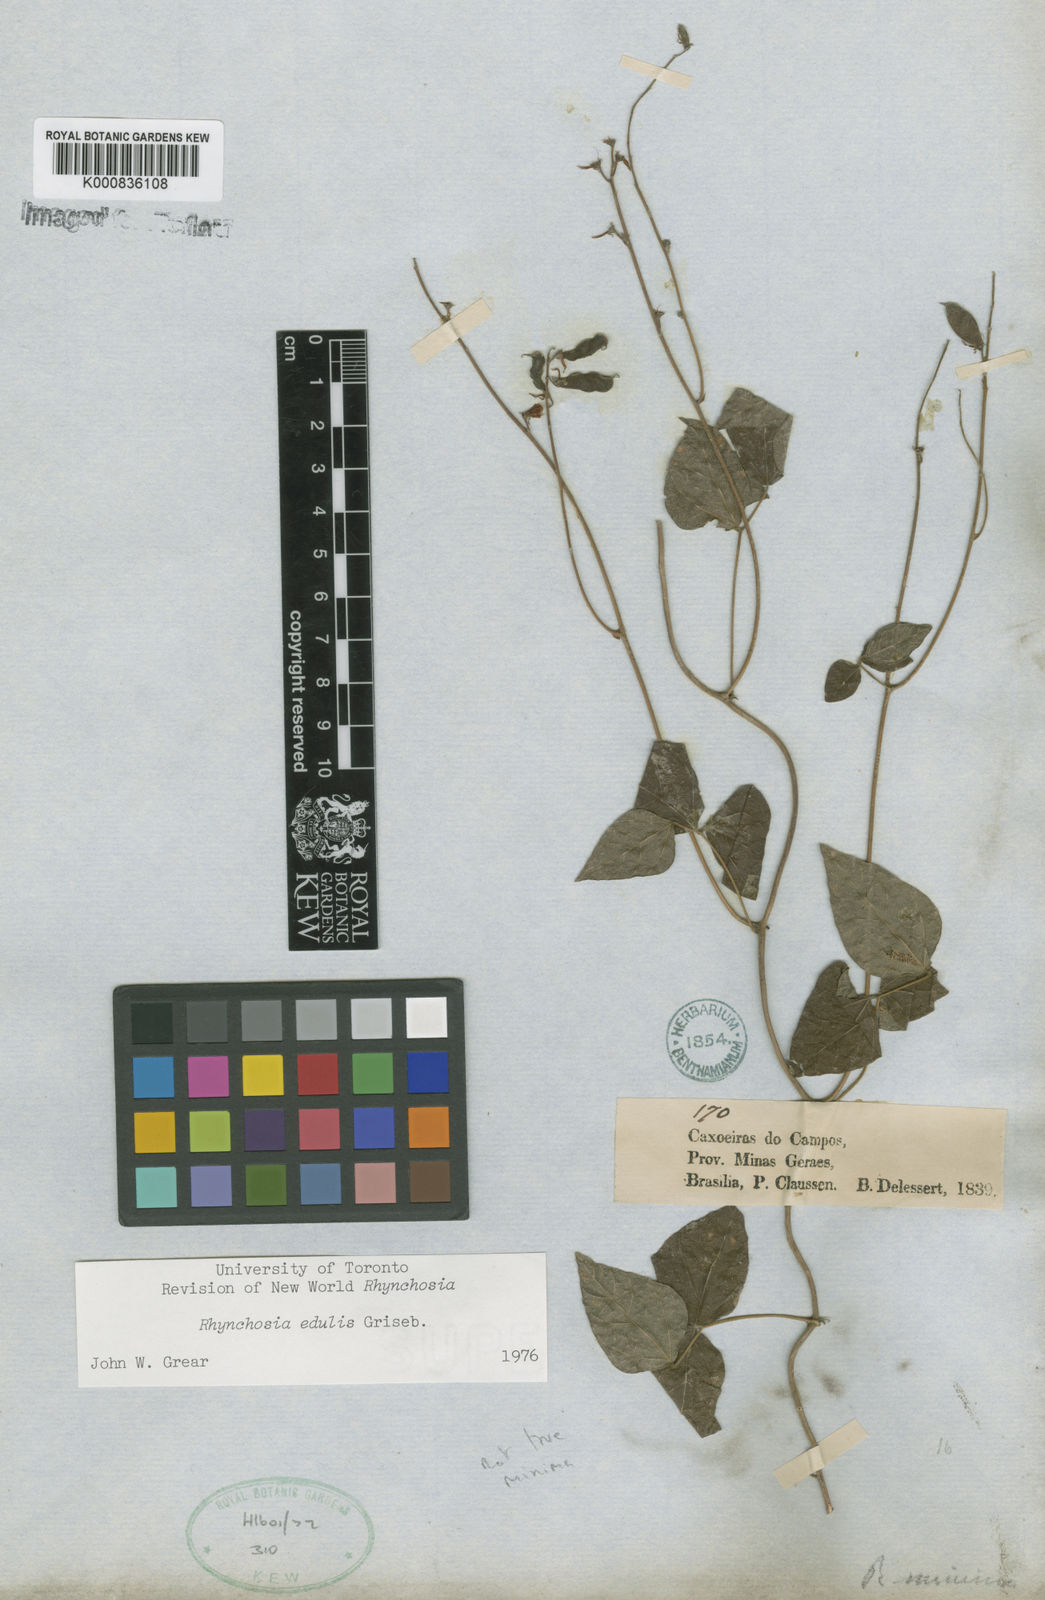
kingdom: Plantae
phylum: Tracheophyta
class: Magnoliopsida
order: Fabales
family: Fabaceae
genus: Rhynchosia
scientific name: Rhynchosia edulis
